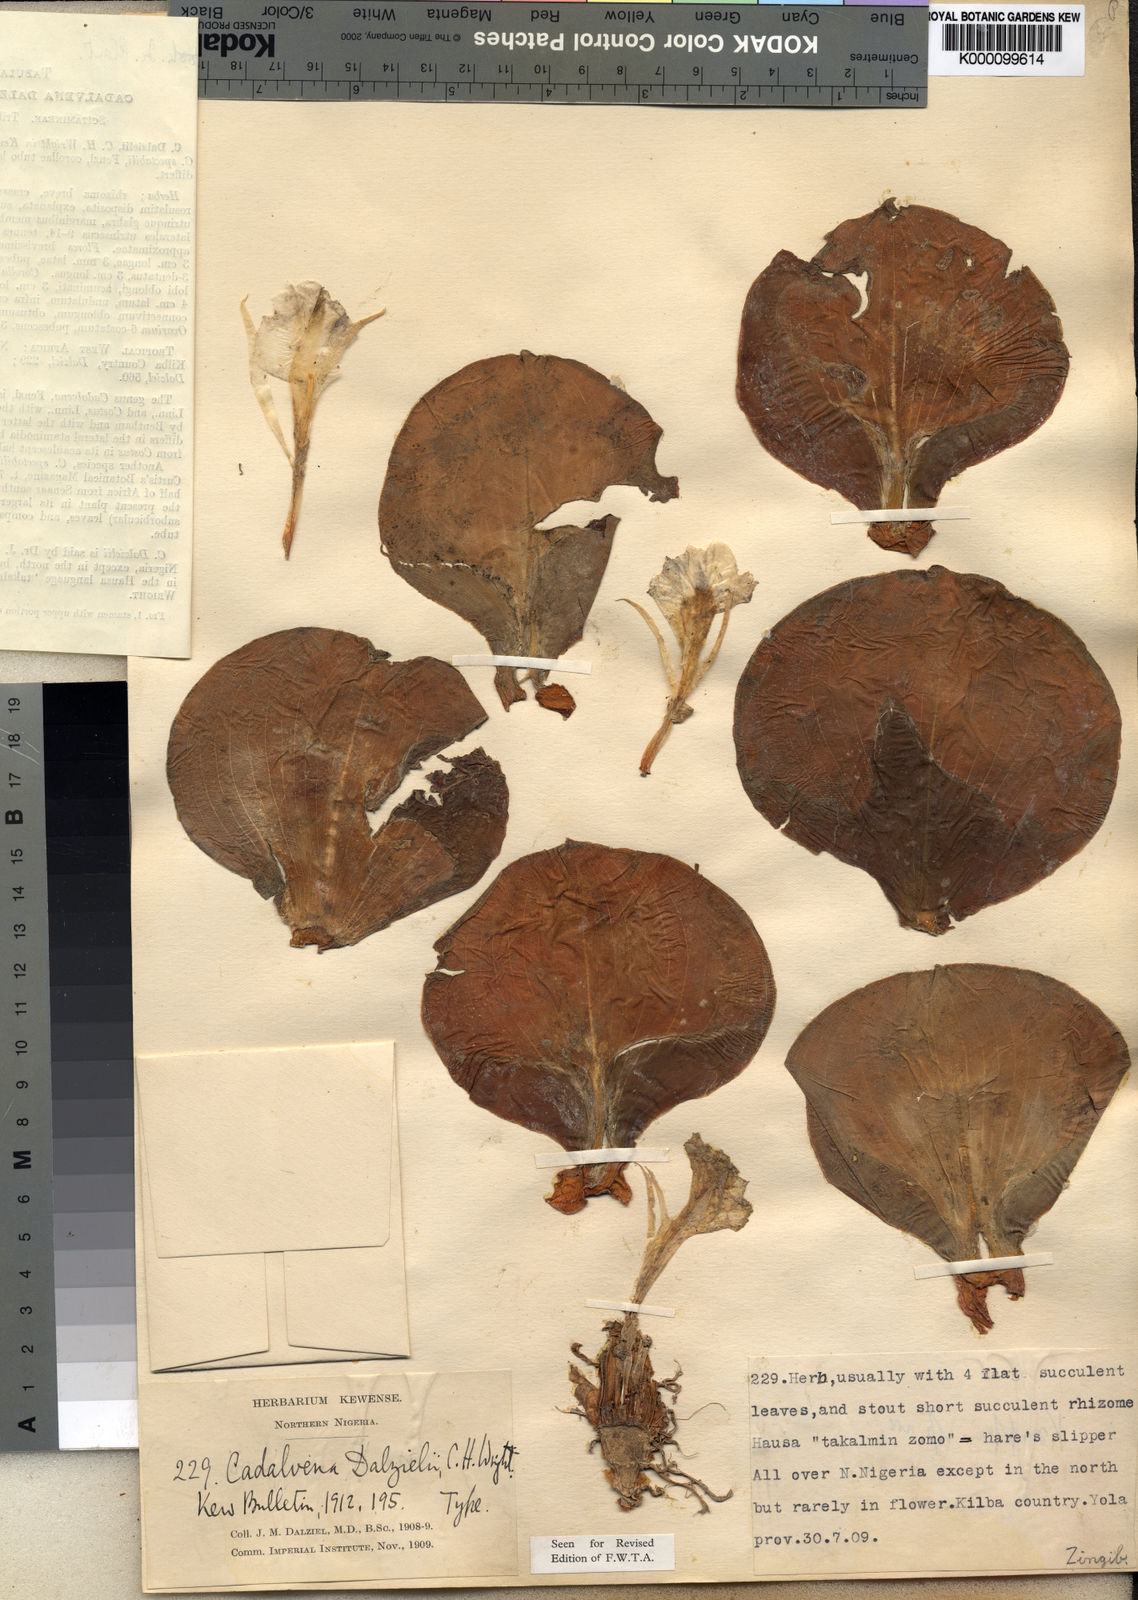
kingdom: Plantae
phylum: Tracheophyta
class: Liliopsida
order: Zingiberales
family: Costaceae
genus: Costus
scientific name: Costus spectabilis
